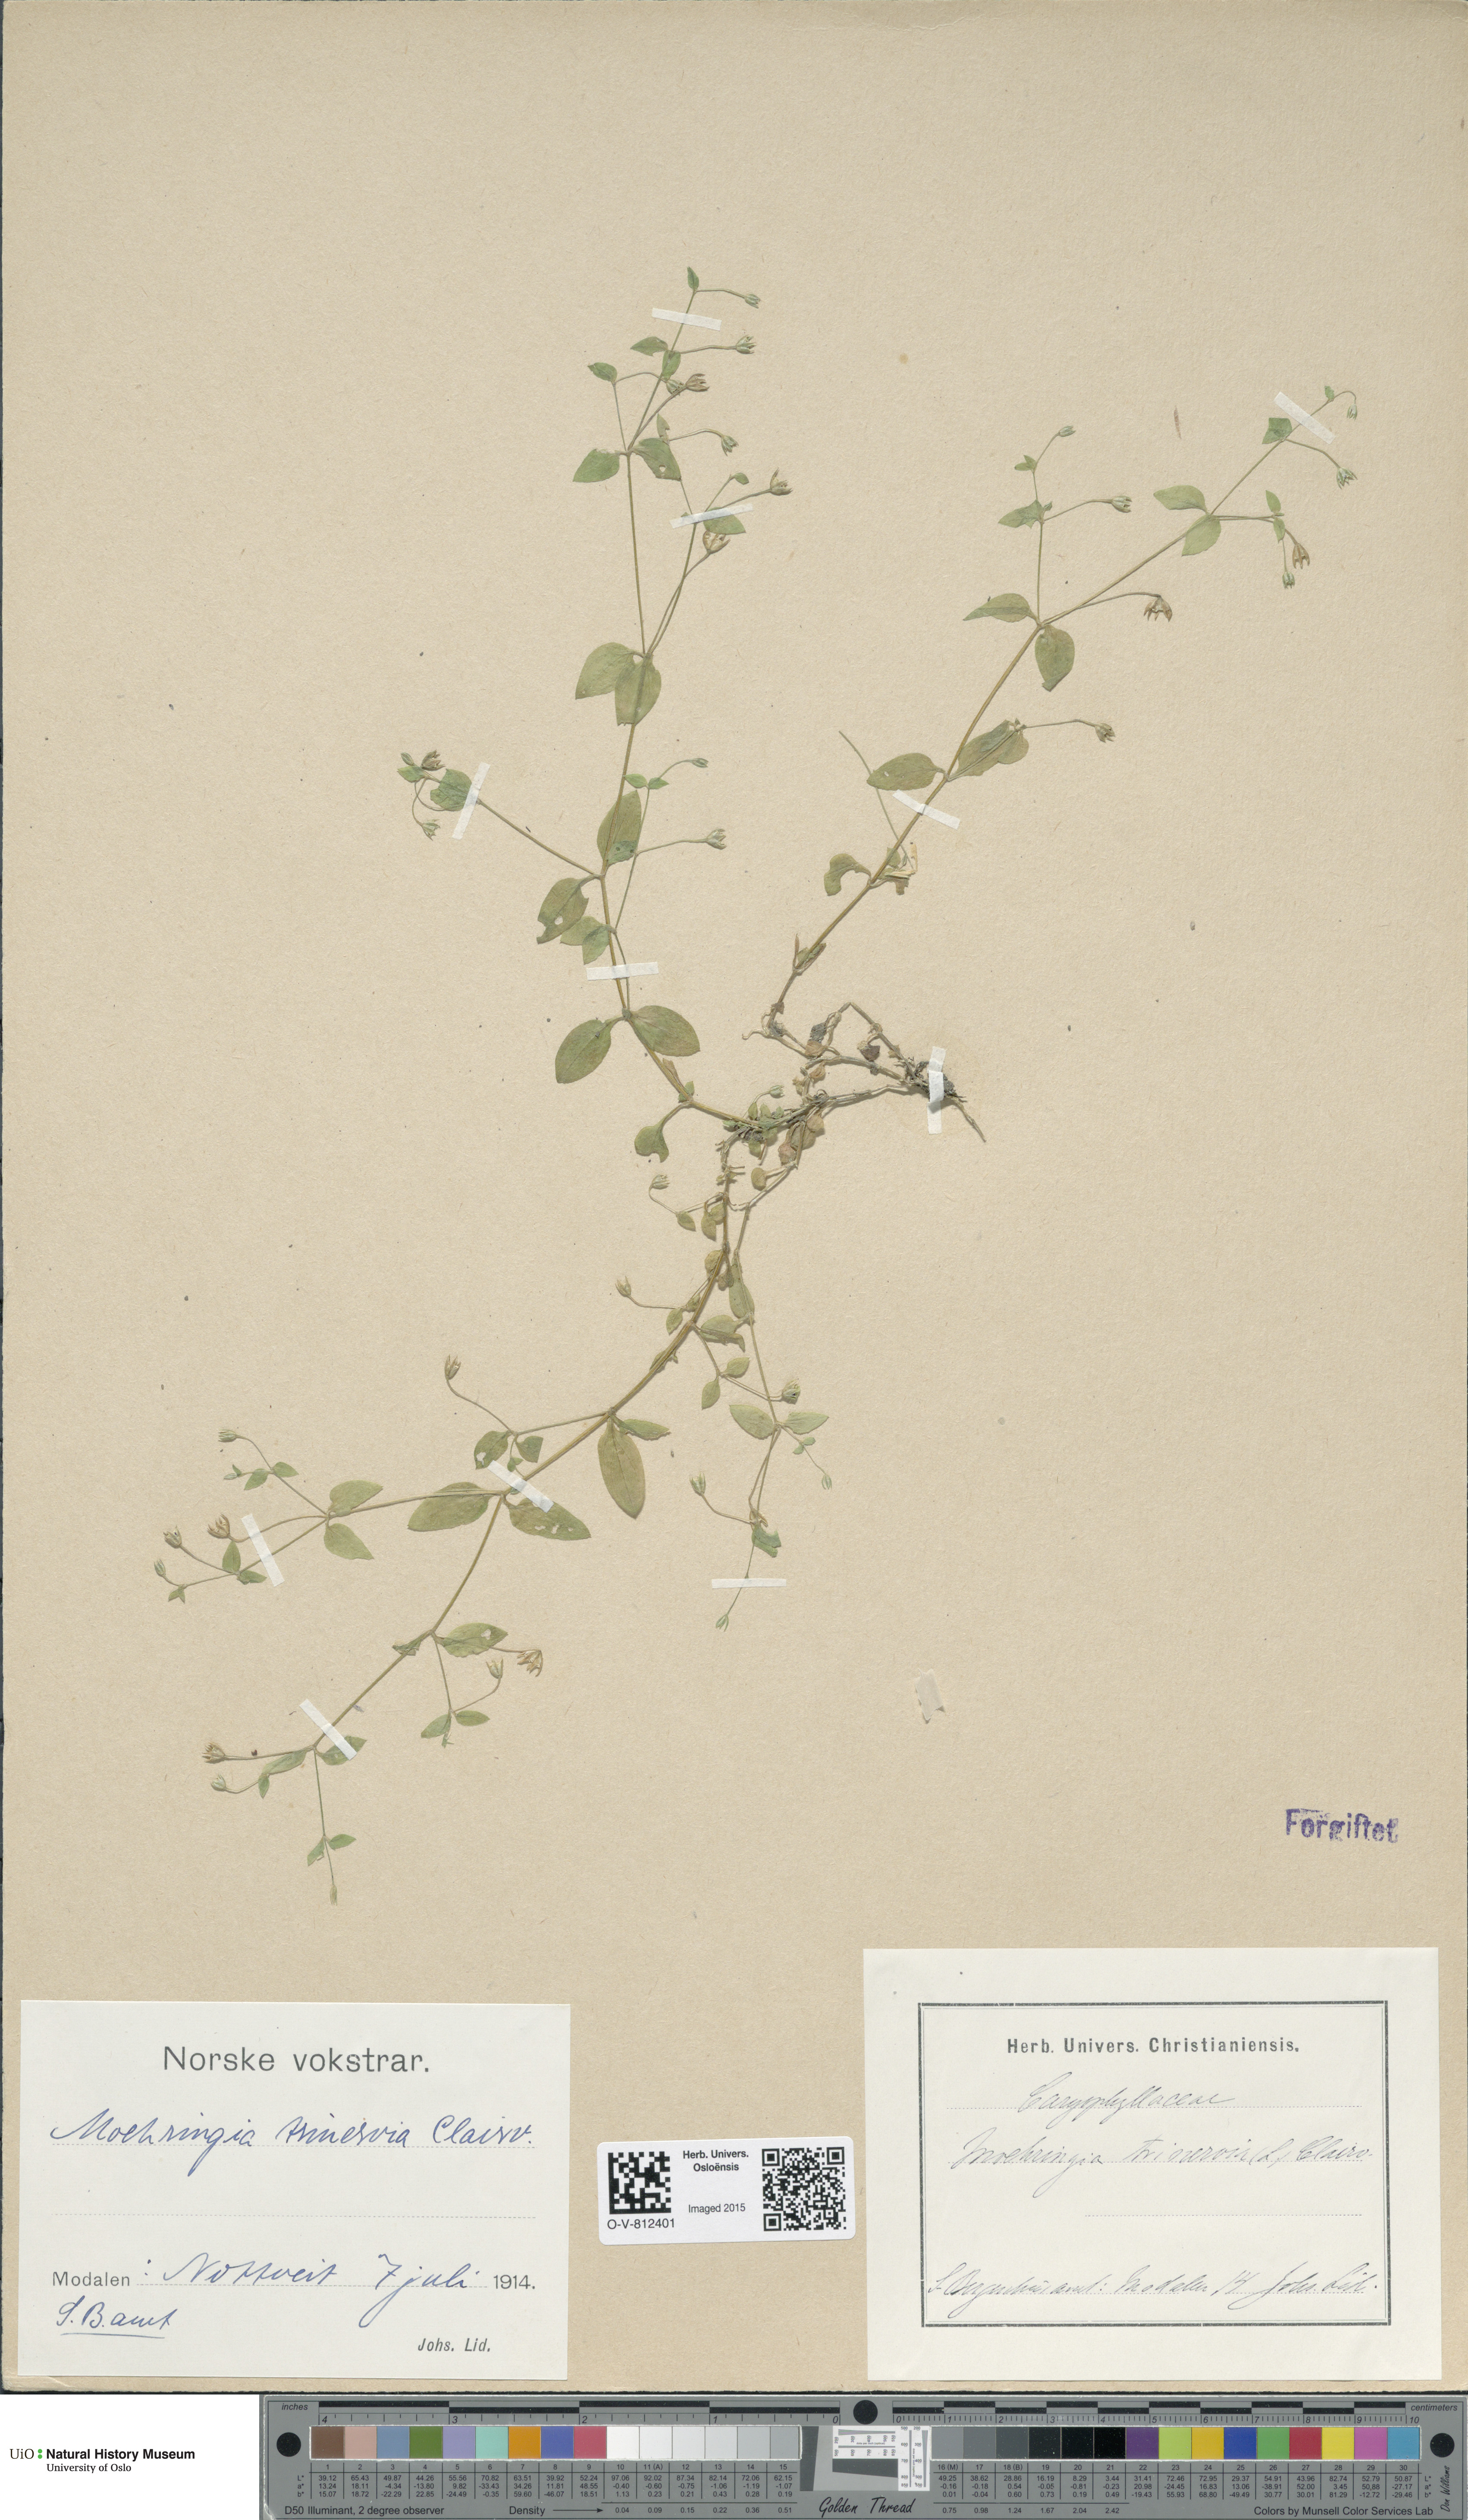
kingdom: Plantae
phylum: Tracheophyta
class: Magnoliopsida
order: Caryophyllales
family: Caryophyllaceae
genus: Moehringia
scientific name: Moehringia trinervia
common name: Three-nerved sandwort
